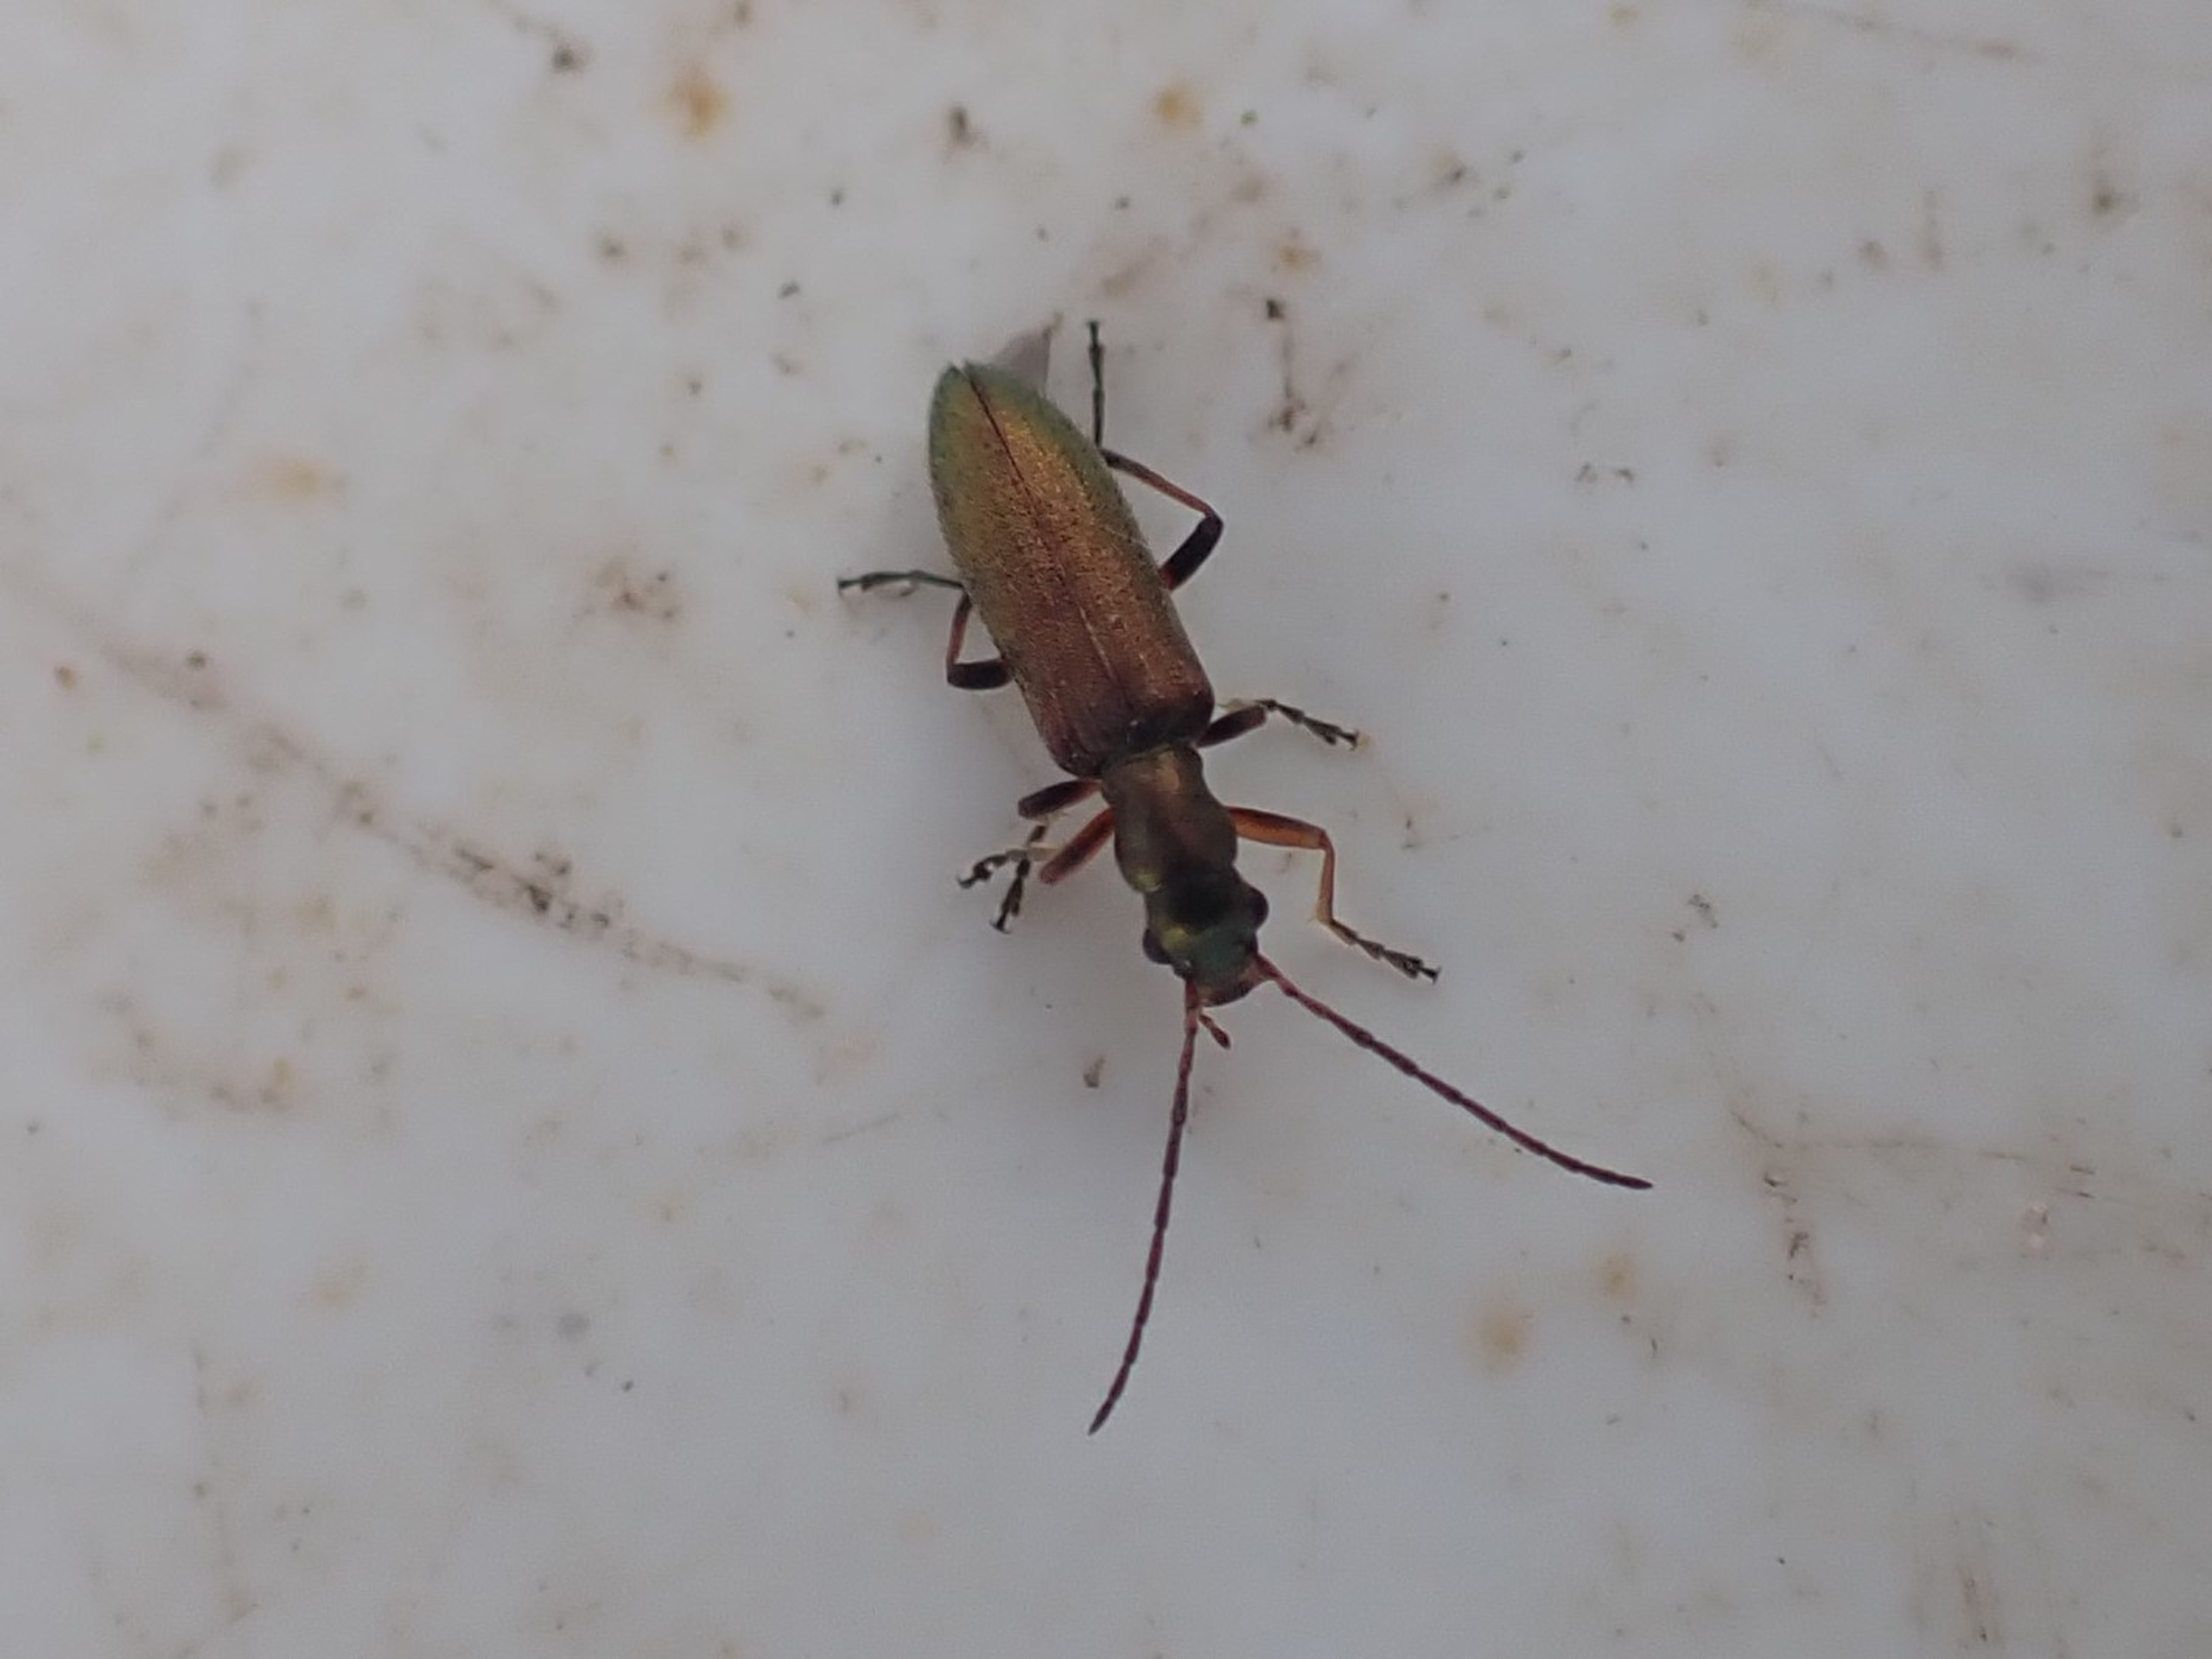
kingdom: Animalia
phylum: Arthropoda
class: Insecta
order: Coleoptera
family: Oedemeridae
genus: Chrysanthia
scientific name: Chrysanthia geniculata
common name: Grøn solbille
